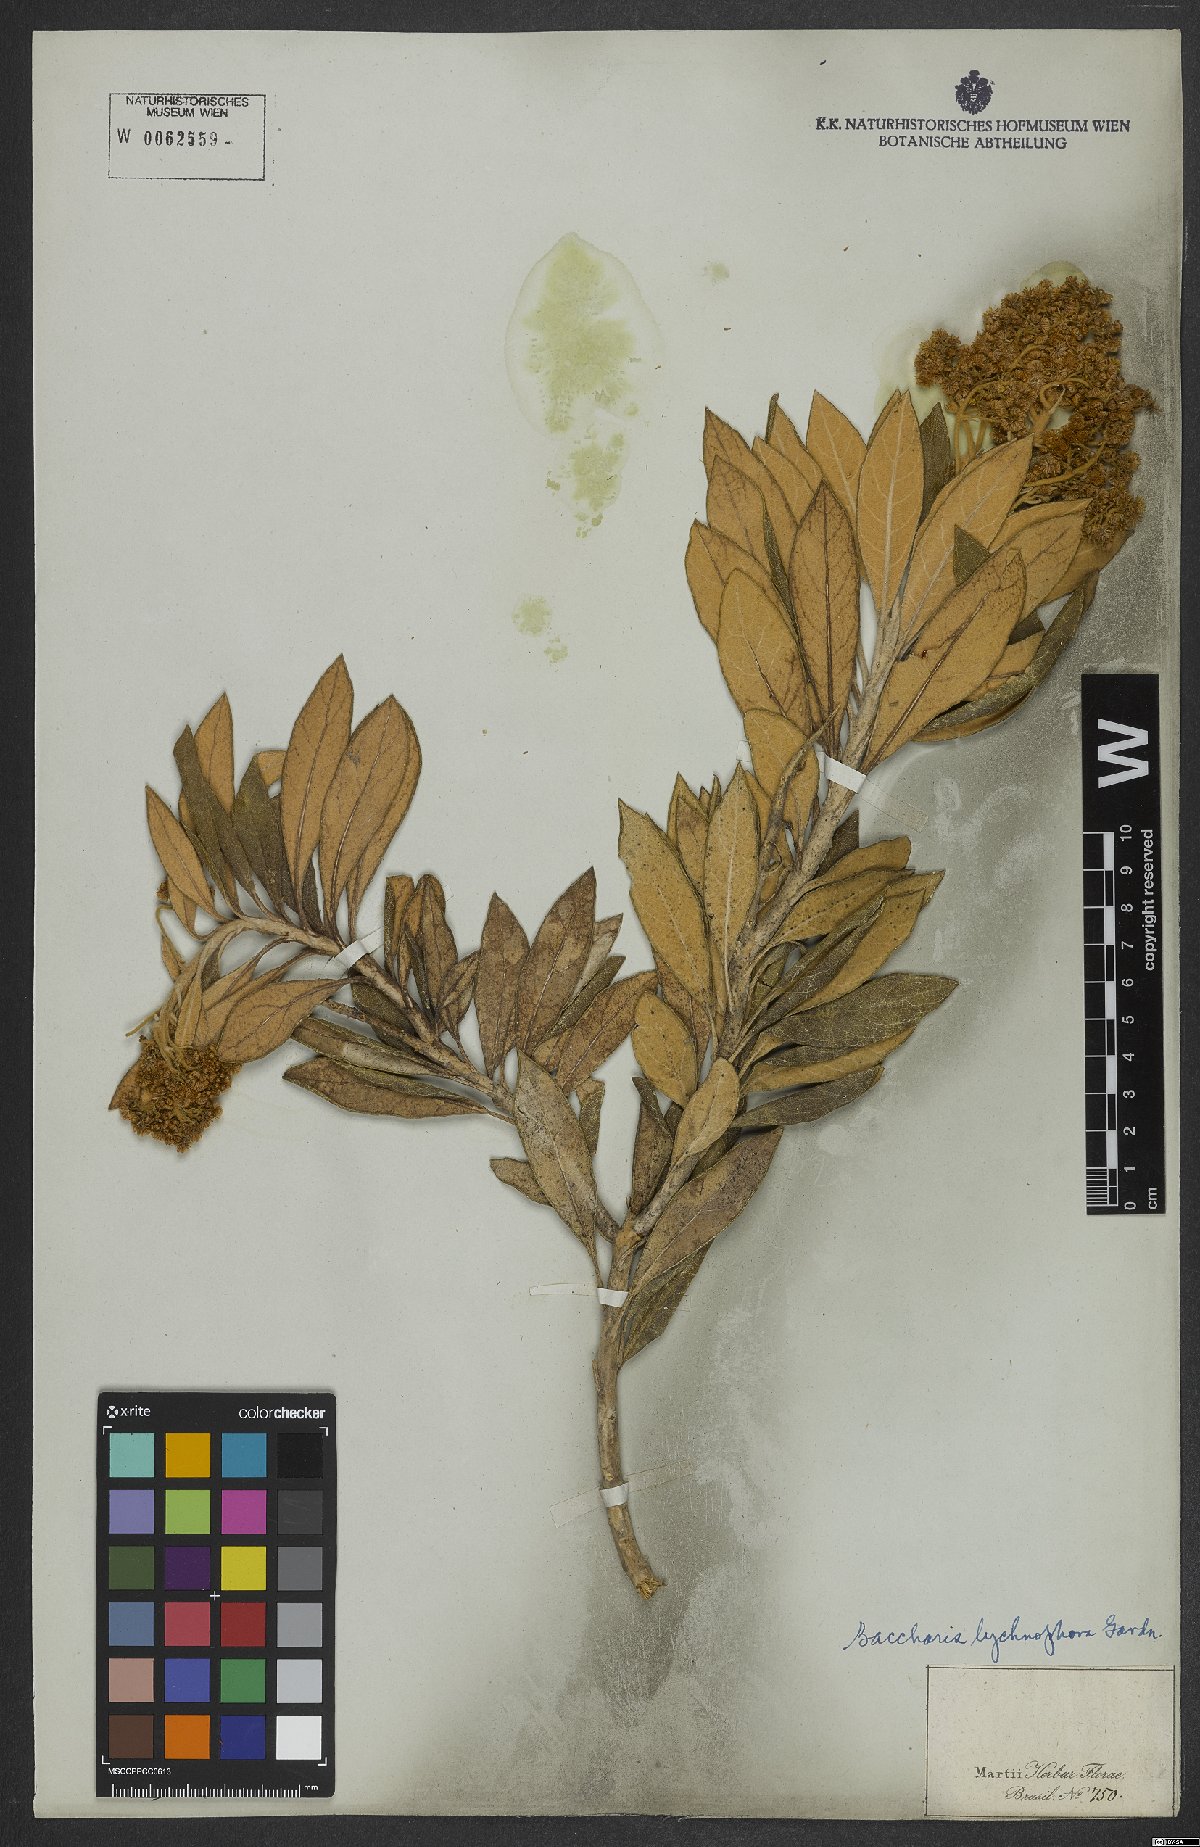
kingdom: Plantae
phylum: Tracheophyta
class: Magnoliopsida
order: Asterales
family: Asteraceae
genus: Baccharis
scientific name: Baccharis lychnophora
